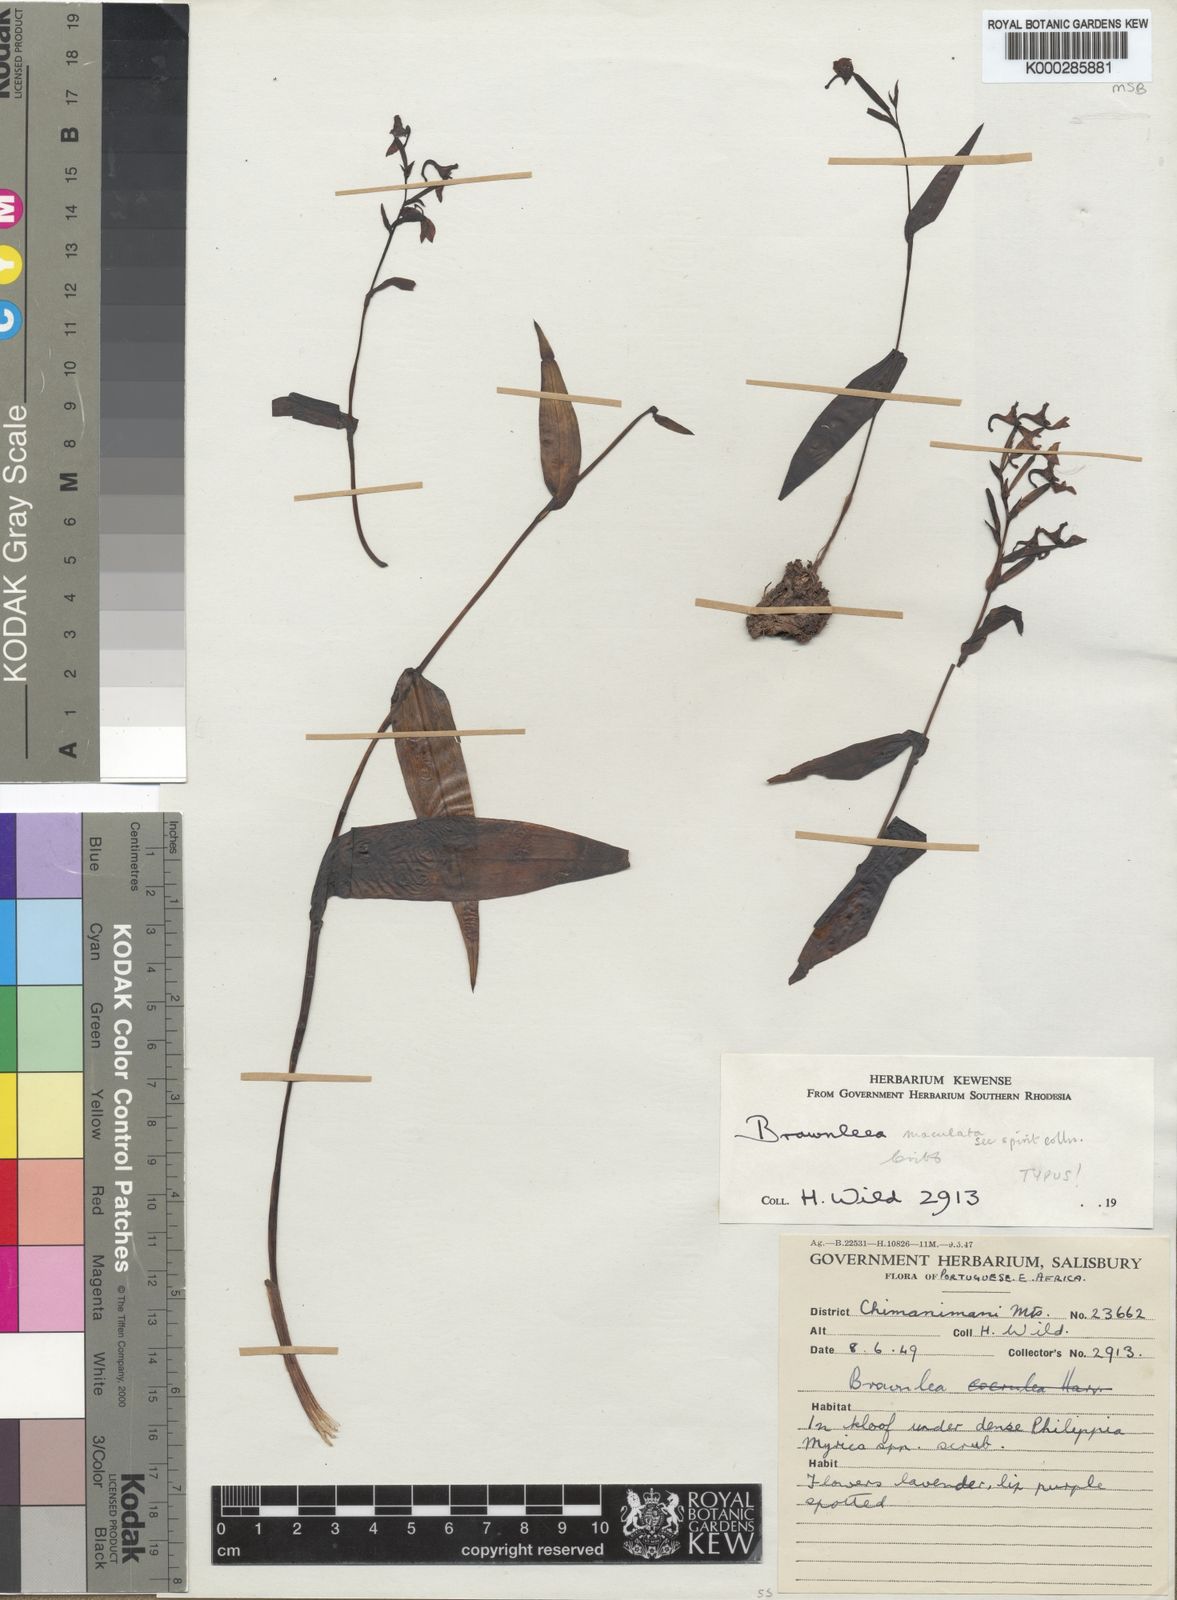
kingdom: Plantae
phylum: Tracheophyta
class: Liliopsida
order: Asparagales
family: Orchidaceae
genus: Brownleea
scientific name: Brownleea maculata
